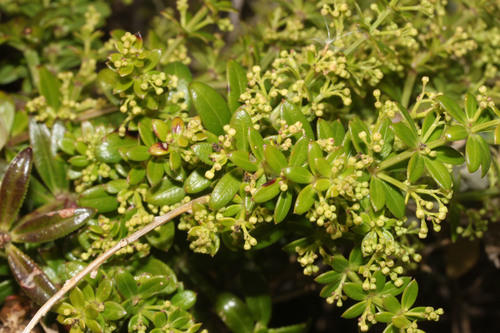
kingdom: Plantae
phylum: Tracheophyta
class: Magnoliopsida
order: Gentianales
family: Rubiaceae
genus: Rubia
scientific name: Rubia peregrina
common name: Wild madder
